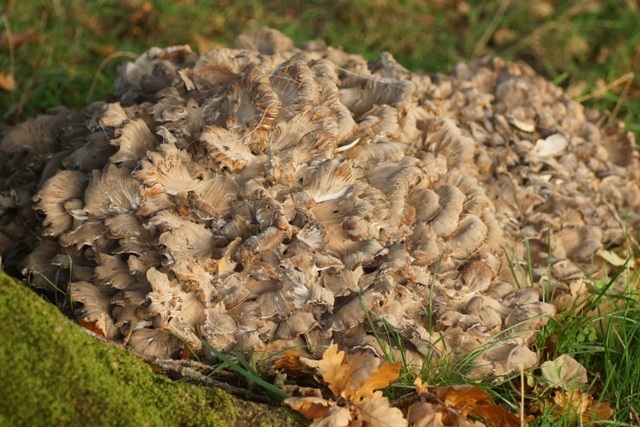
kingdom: Fungi
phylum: Basidiomycota
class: Agaricomycetes
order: Polyporales
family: Grifolaceae
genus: Grifola
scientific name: Grifola frondosa
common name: tueporesvamp
